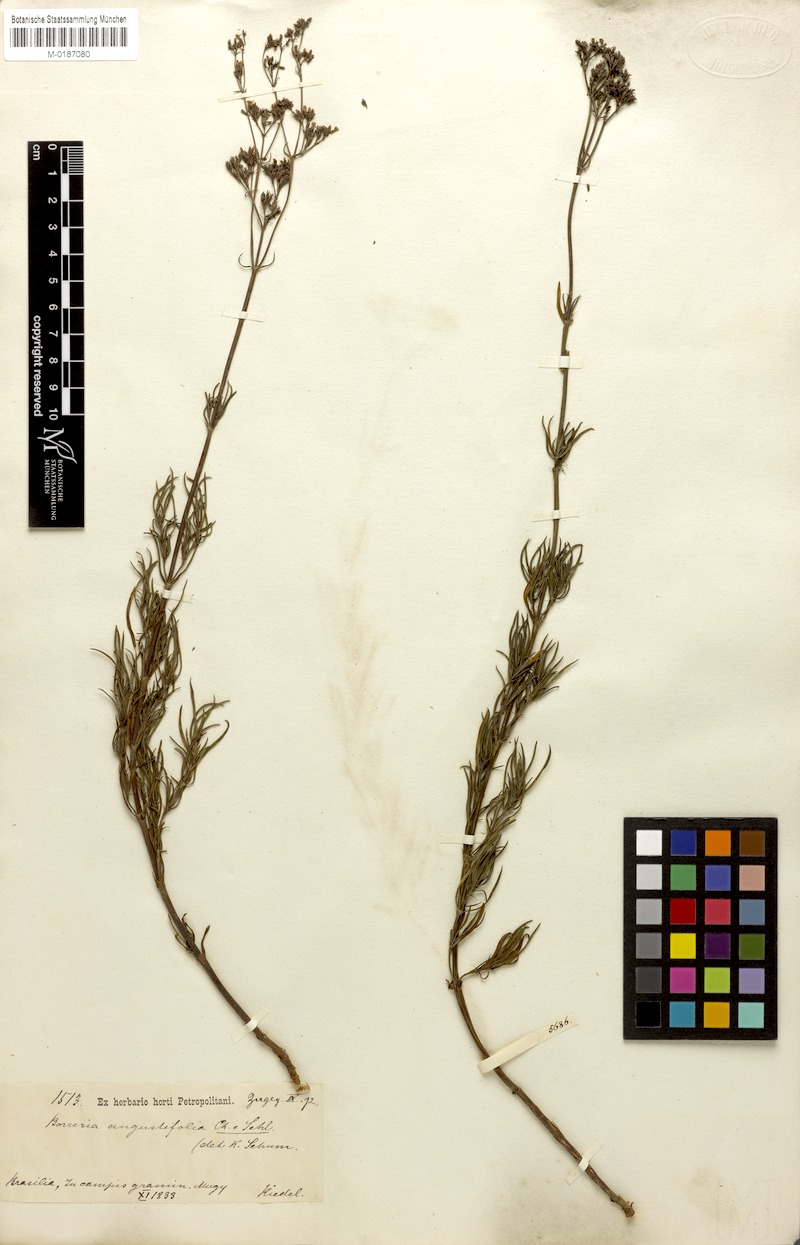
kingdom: Plantae
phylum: Tracheophyta
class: Magnoliopsida
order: Gentianales
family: Rubiaceae
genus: Galianthe
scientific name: Galianthe angustifolia
